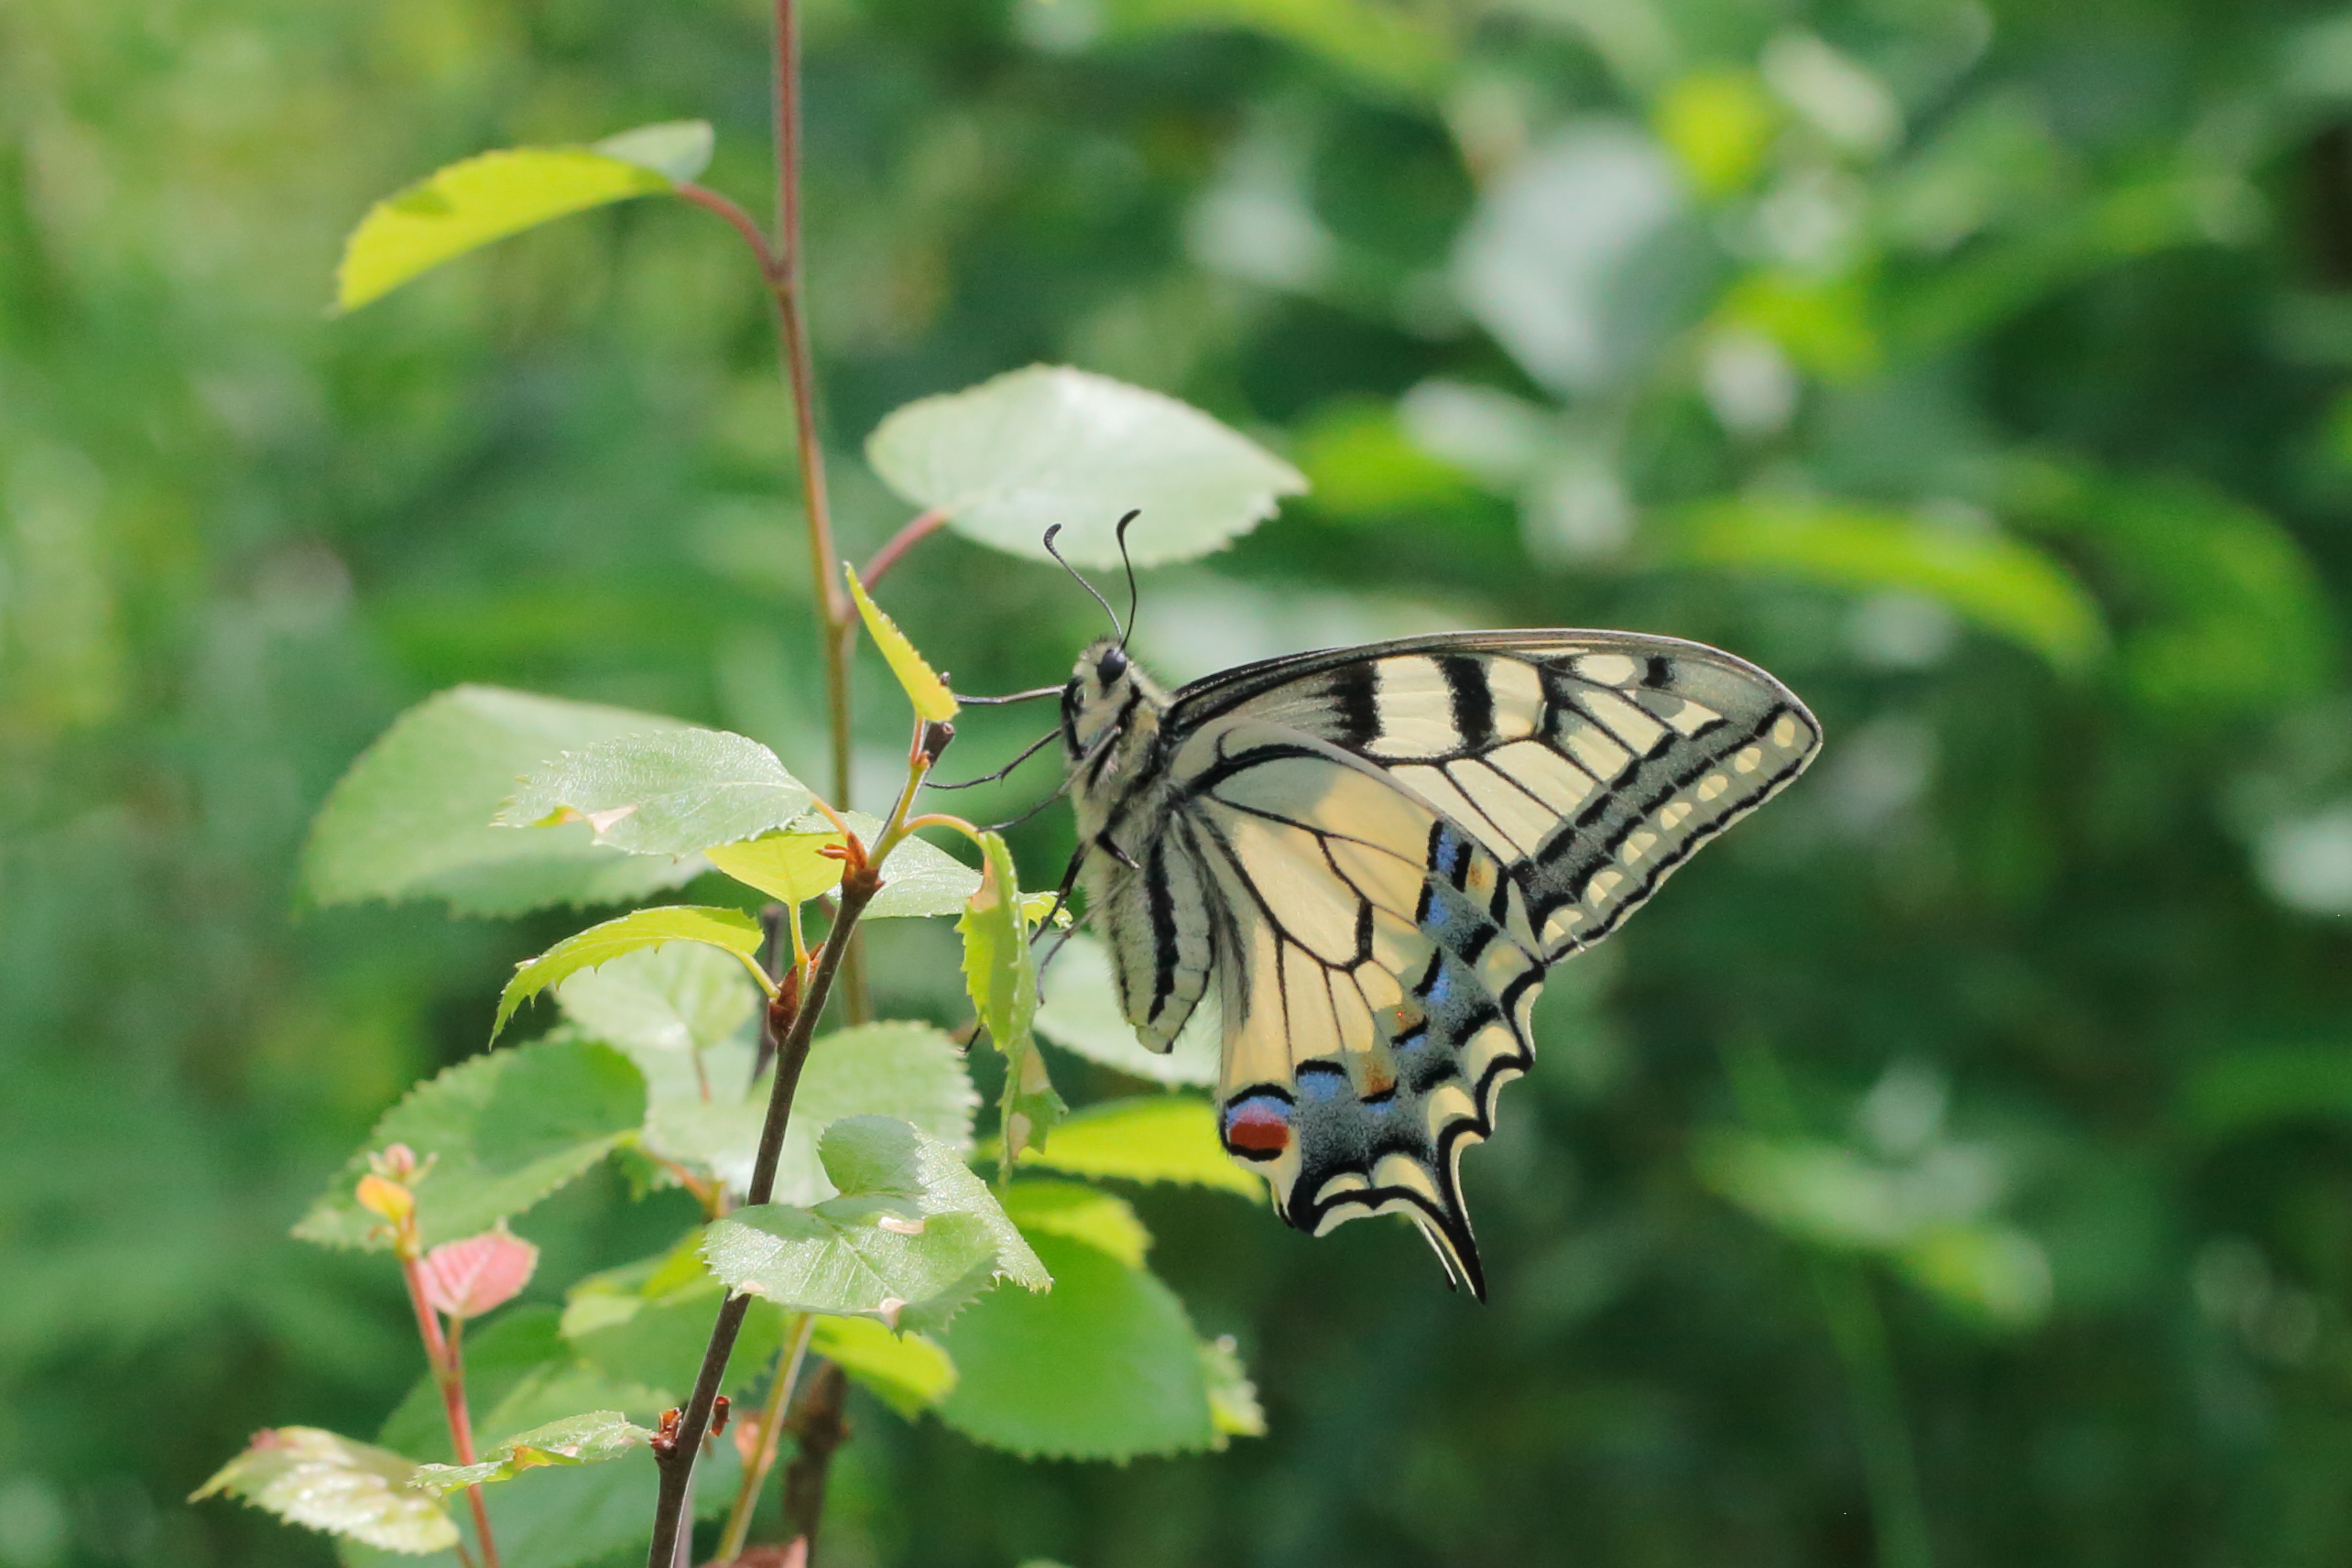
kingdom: Animalia
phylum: Arthropoda
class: Insecta
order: Lepidoptera
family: Papilionidae
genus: Papilio
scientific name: Papilio machaon
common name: Swallowtail
